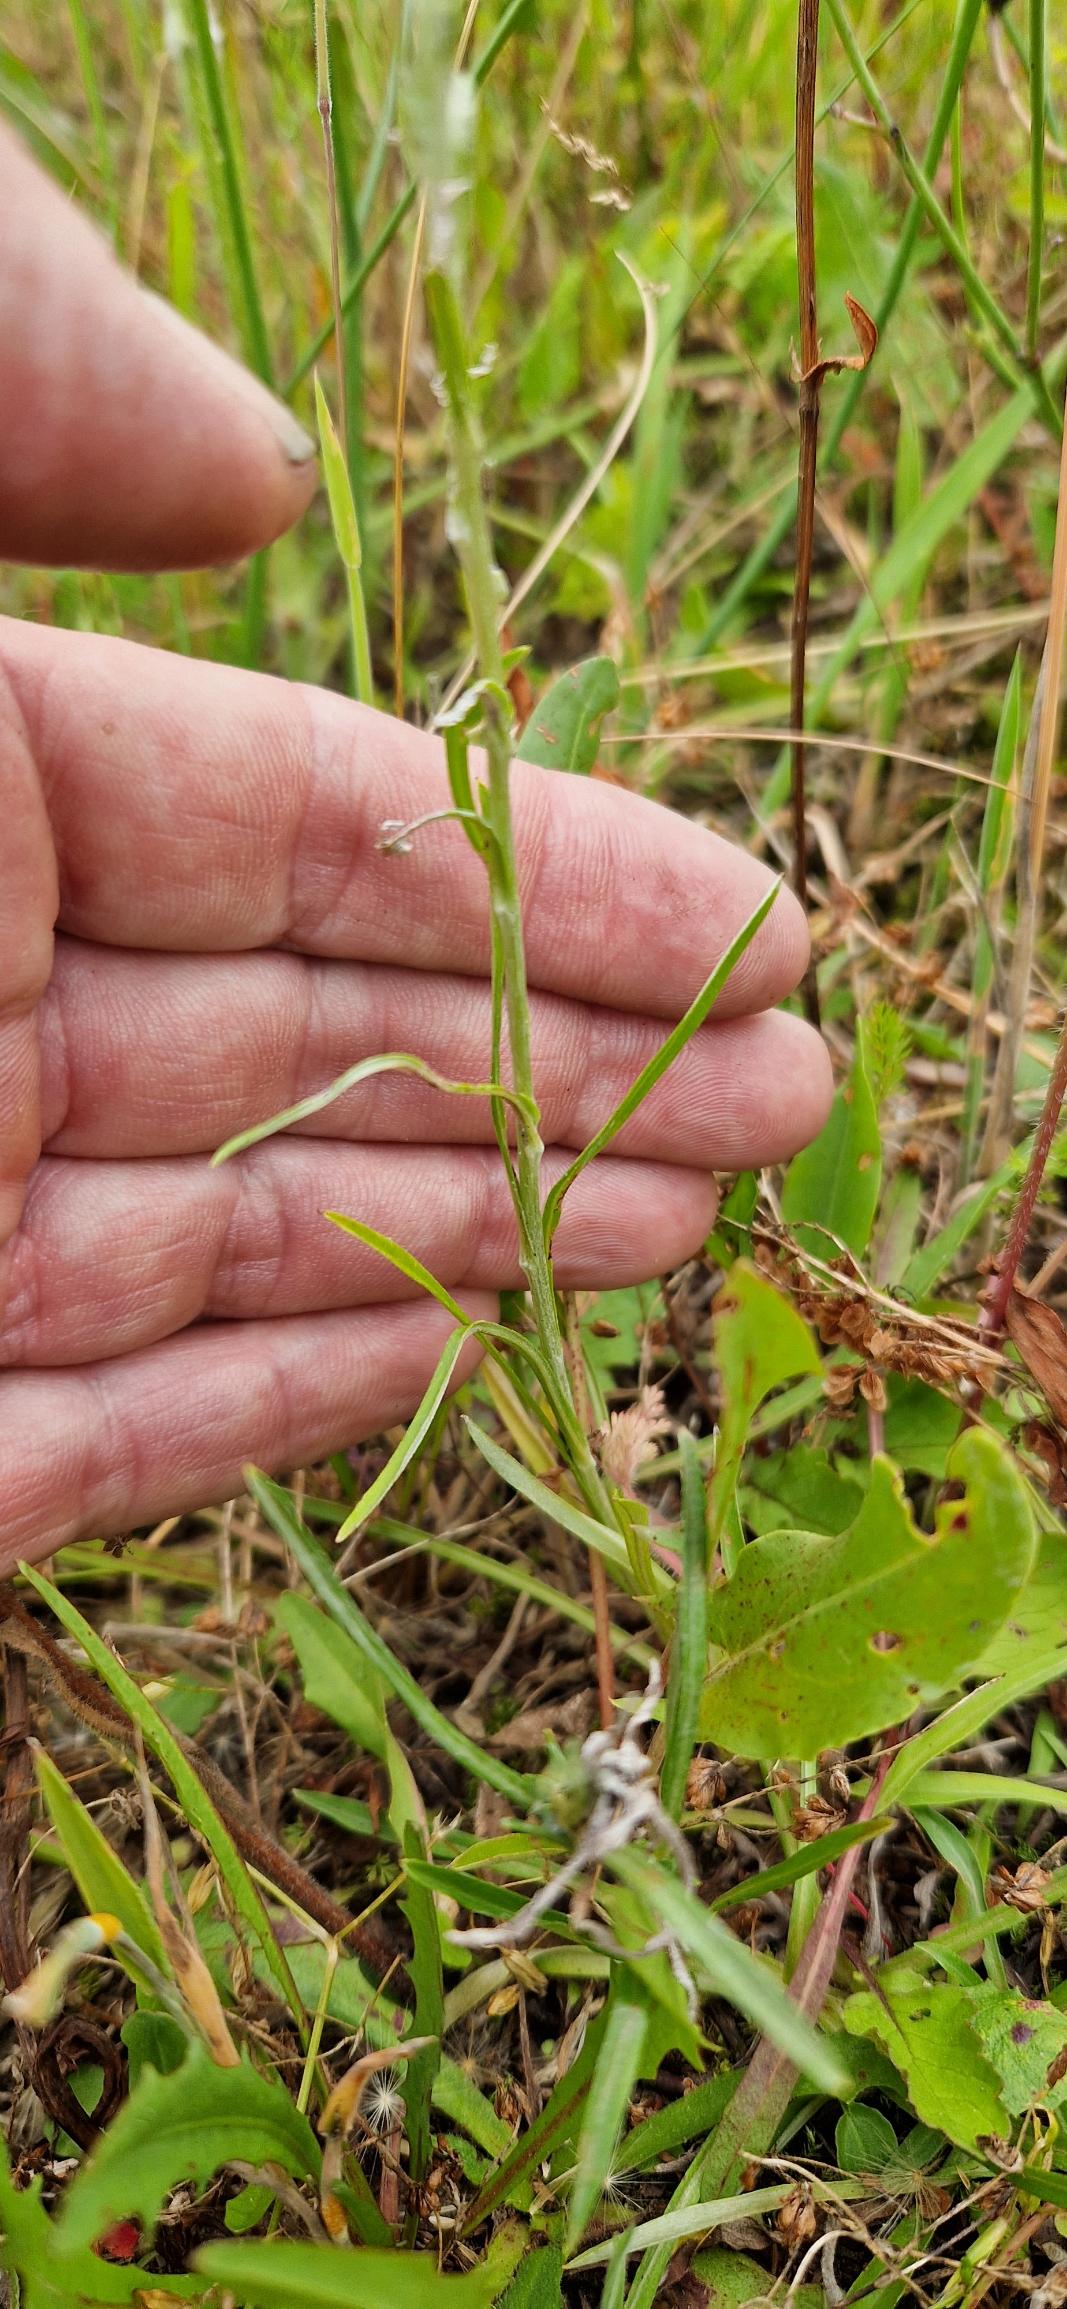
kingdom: Plantae
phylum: Tracheophyta
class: Magnoliopsida
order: Asterales
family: Asteraceae
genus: Omalotheca
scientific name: Omalotheca sylvatica
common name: Rank evighedsblomst
